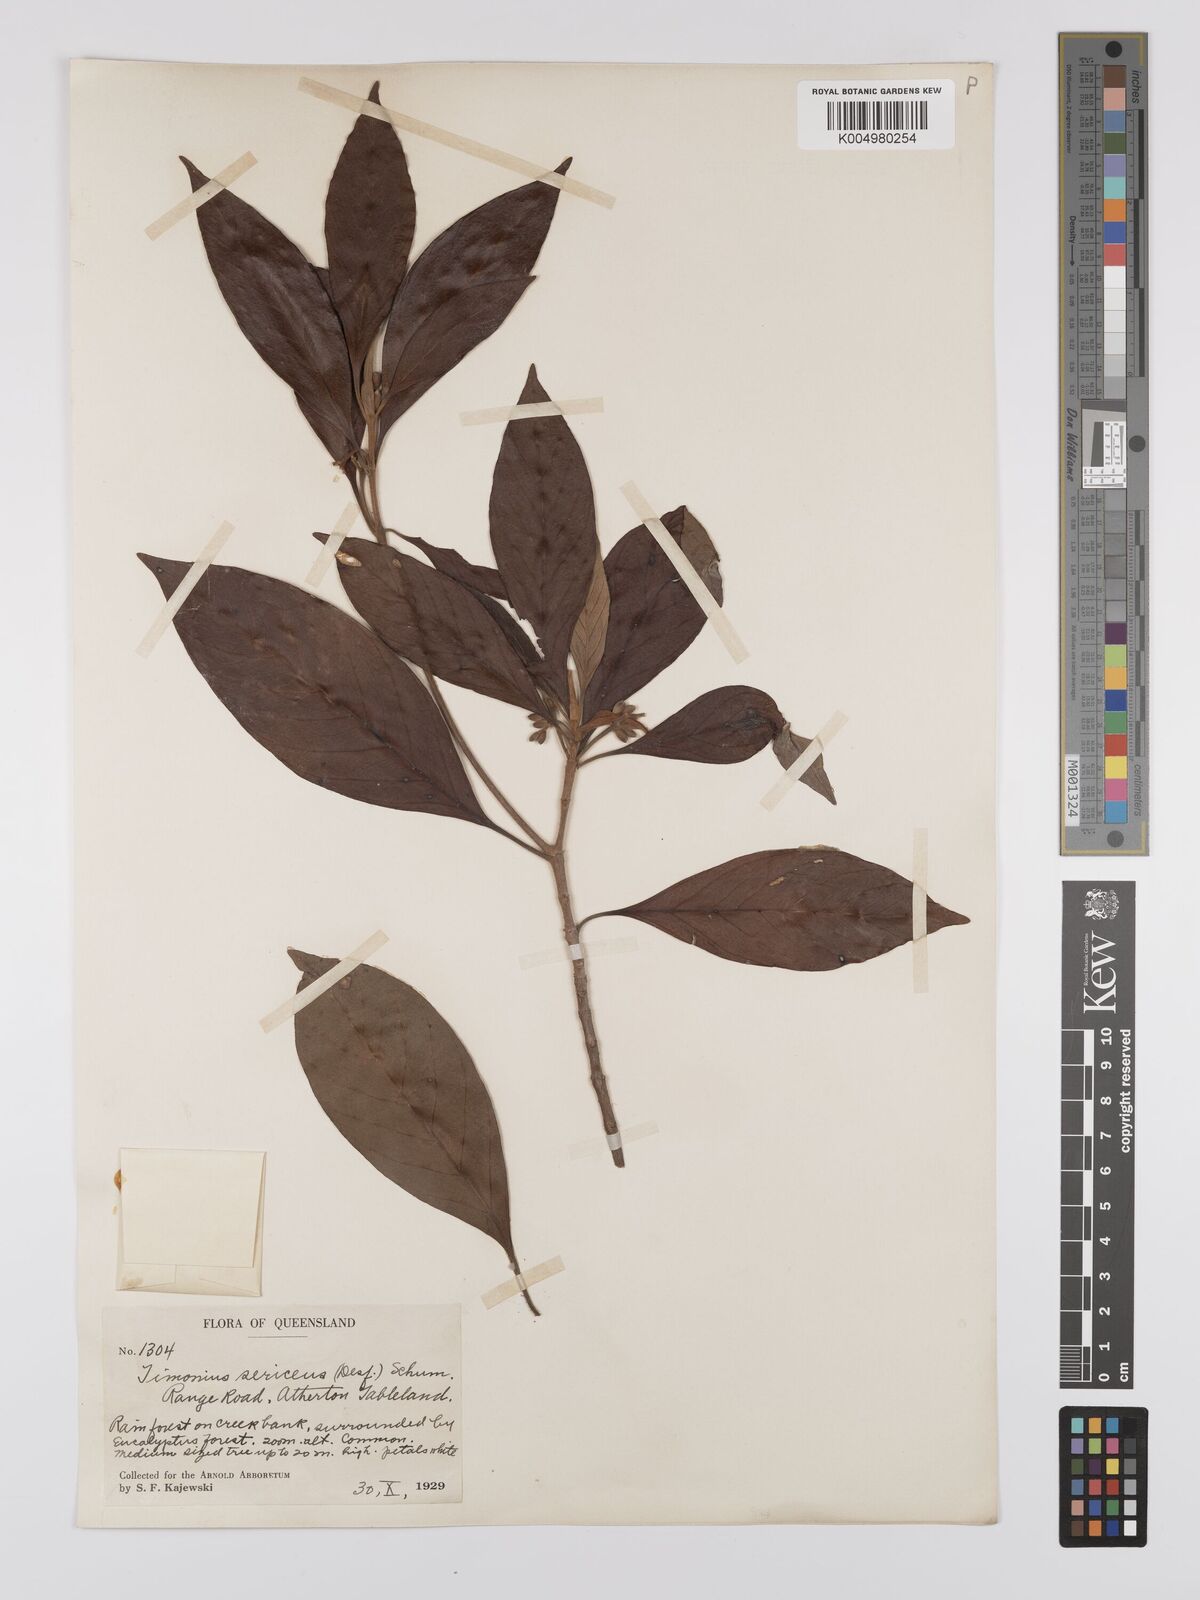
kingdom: Plantae
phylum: Tracheophyta
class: Magnoliopsida
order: Gentianales
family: Rubiaceae
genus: Timonius
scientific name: Timonius timon
